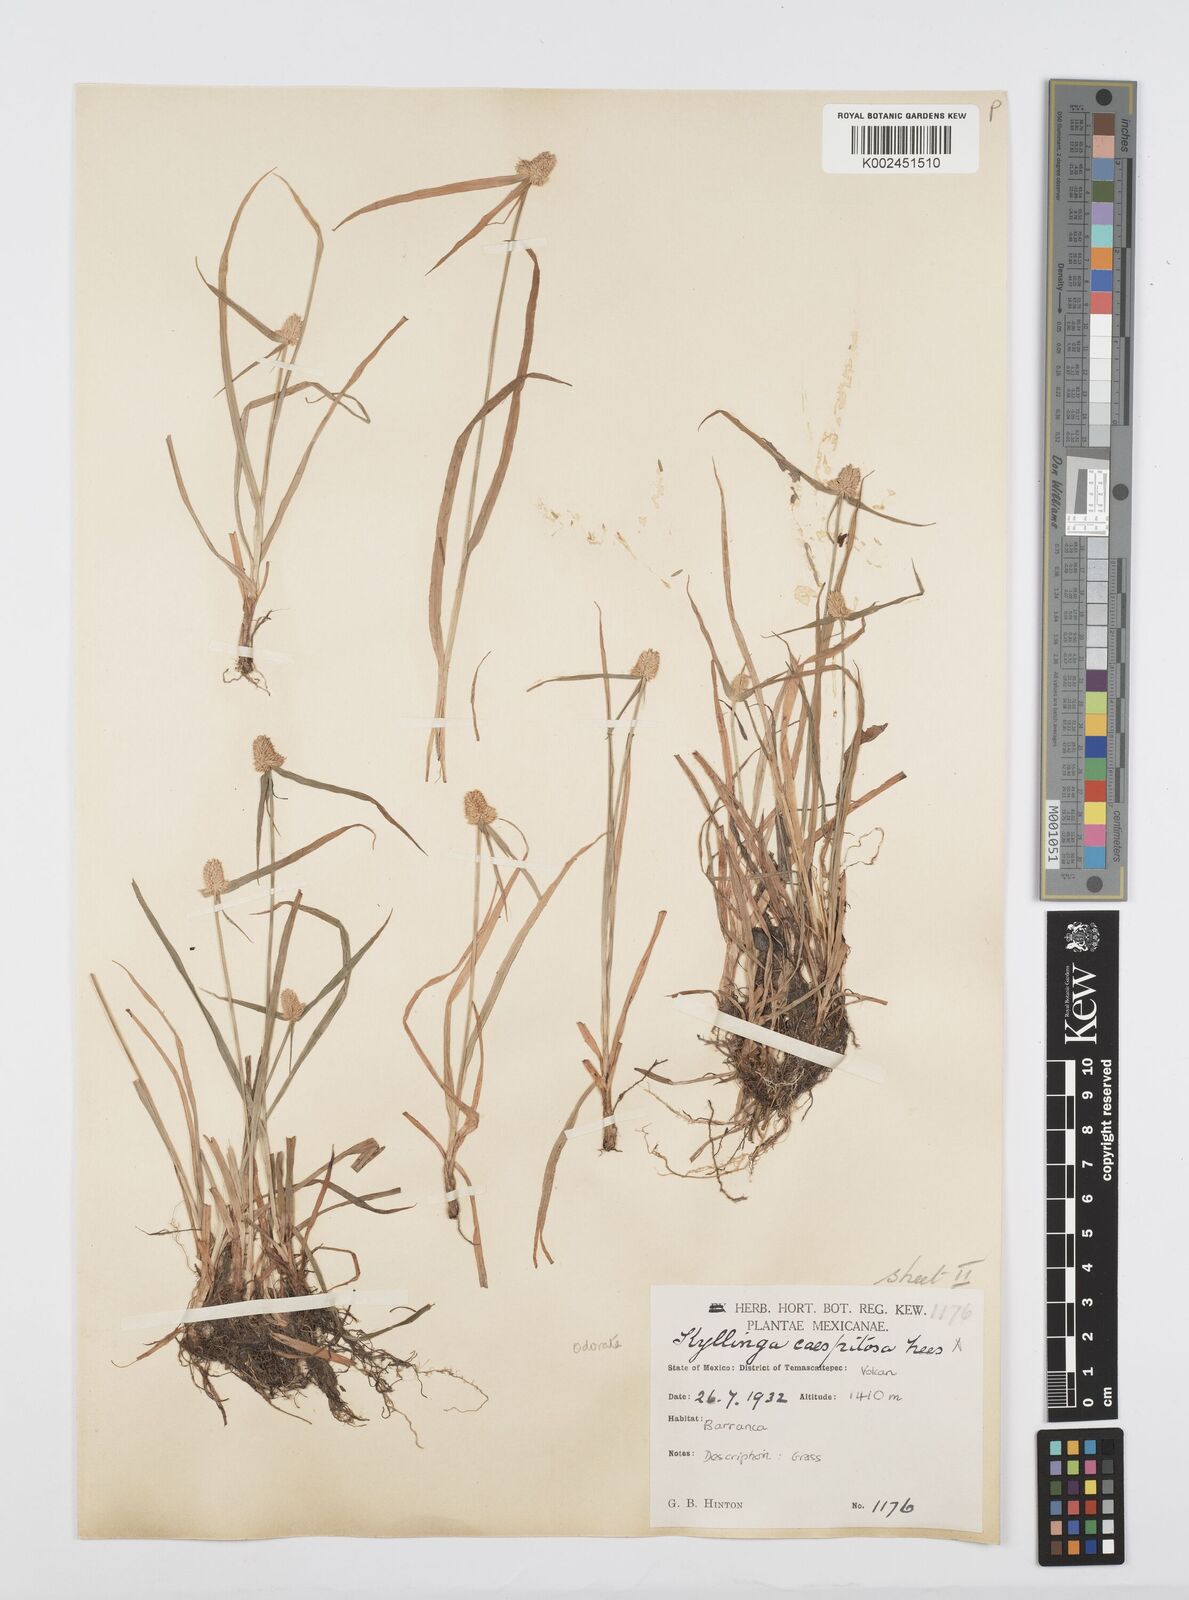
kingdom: Plantae
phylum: Tracheophyta
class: Liliopsida
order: Poales
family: Cyperaceae
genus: Cyperus
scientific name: Cyperus
